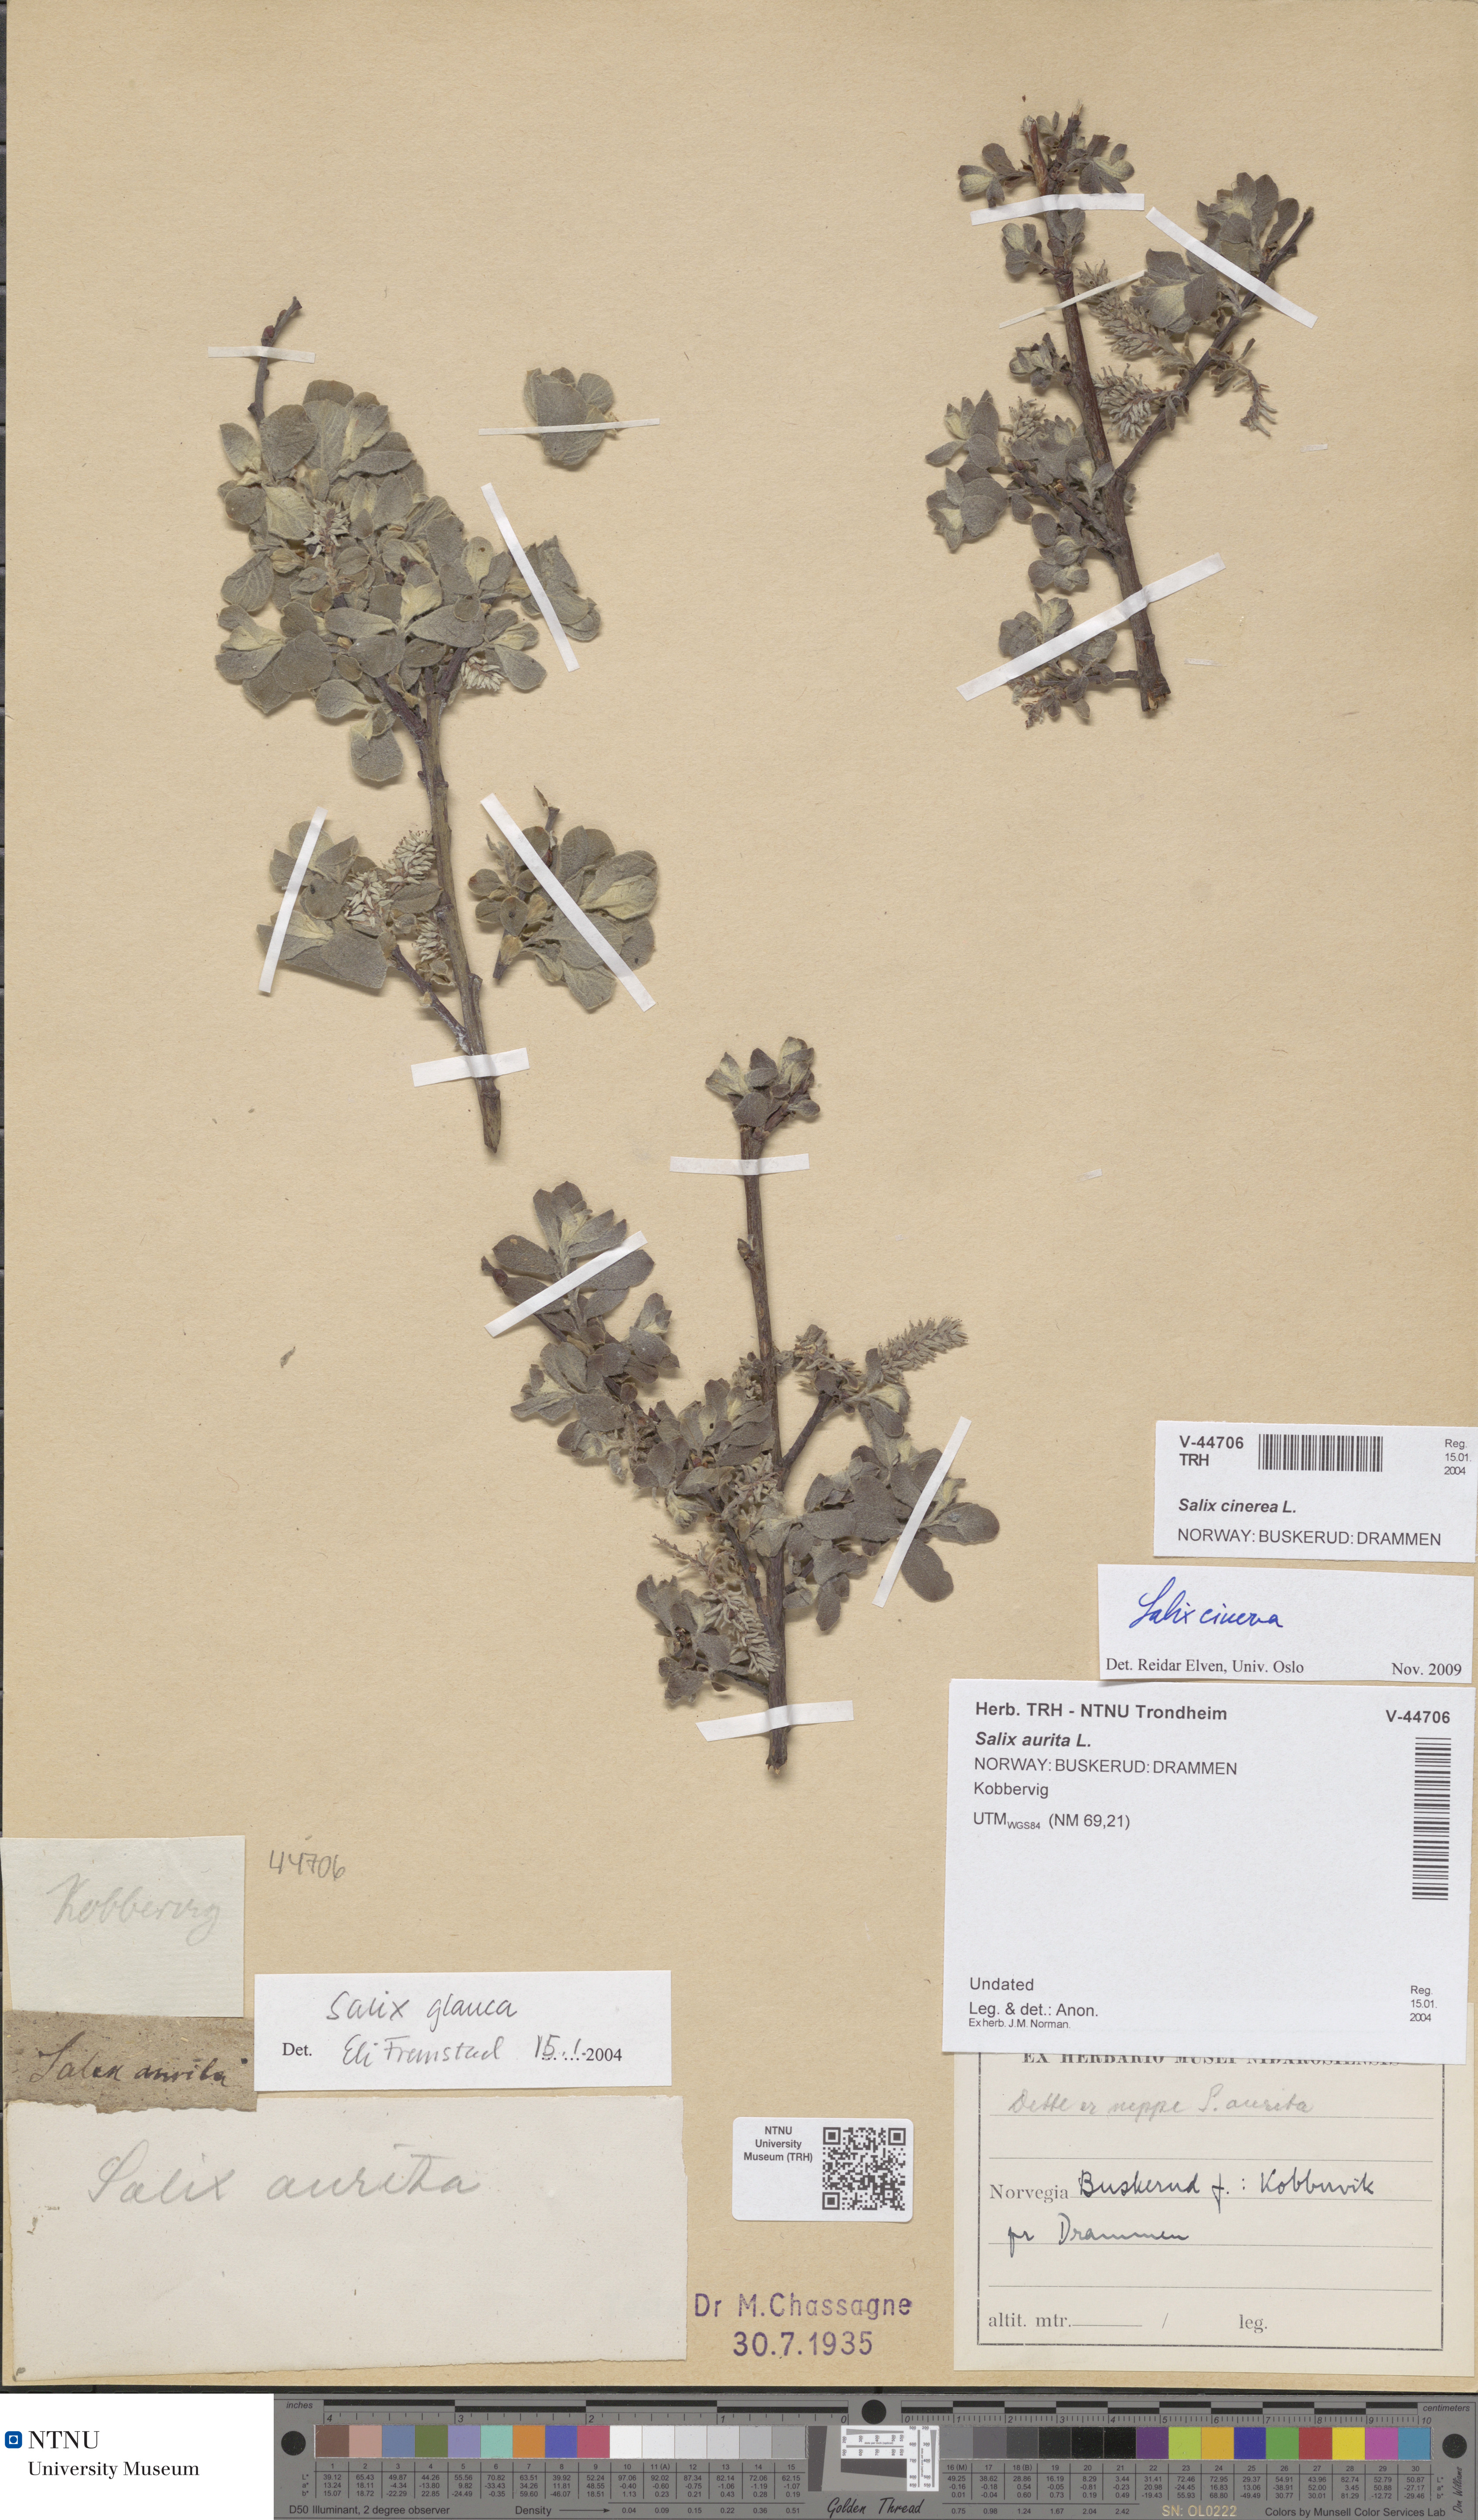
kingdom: Plantae
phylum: Tracheophyta
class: Magnoliopsida
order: Malpighiales
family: Salicaceae
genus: Salix
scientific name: Salix cinerea
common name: Common sallow
